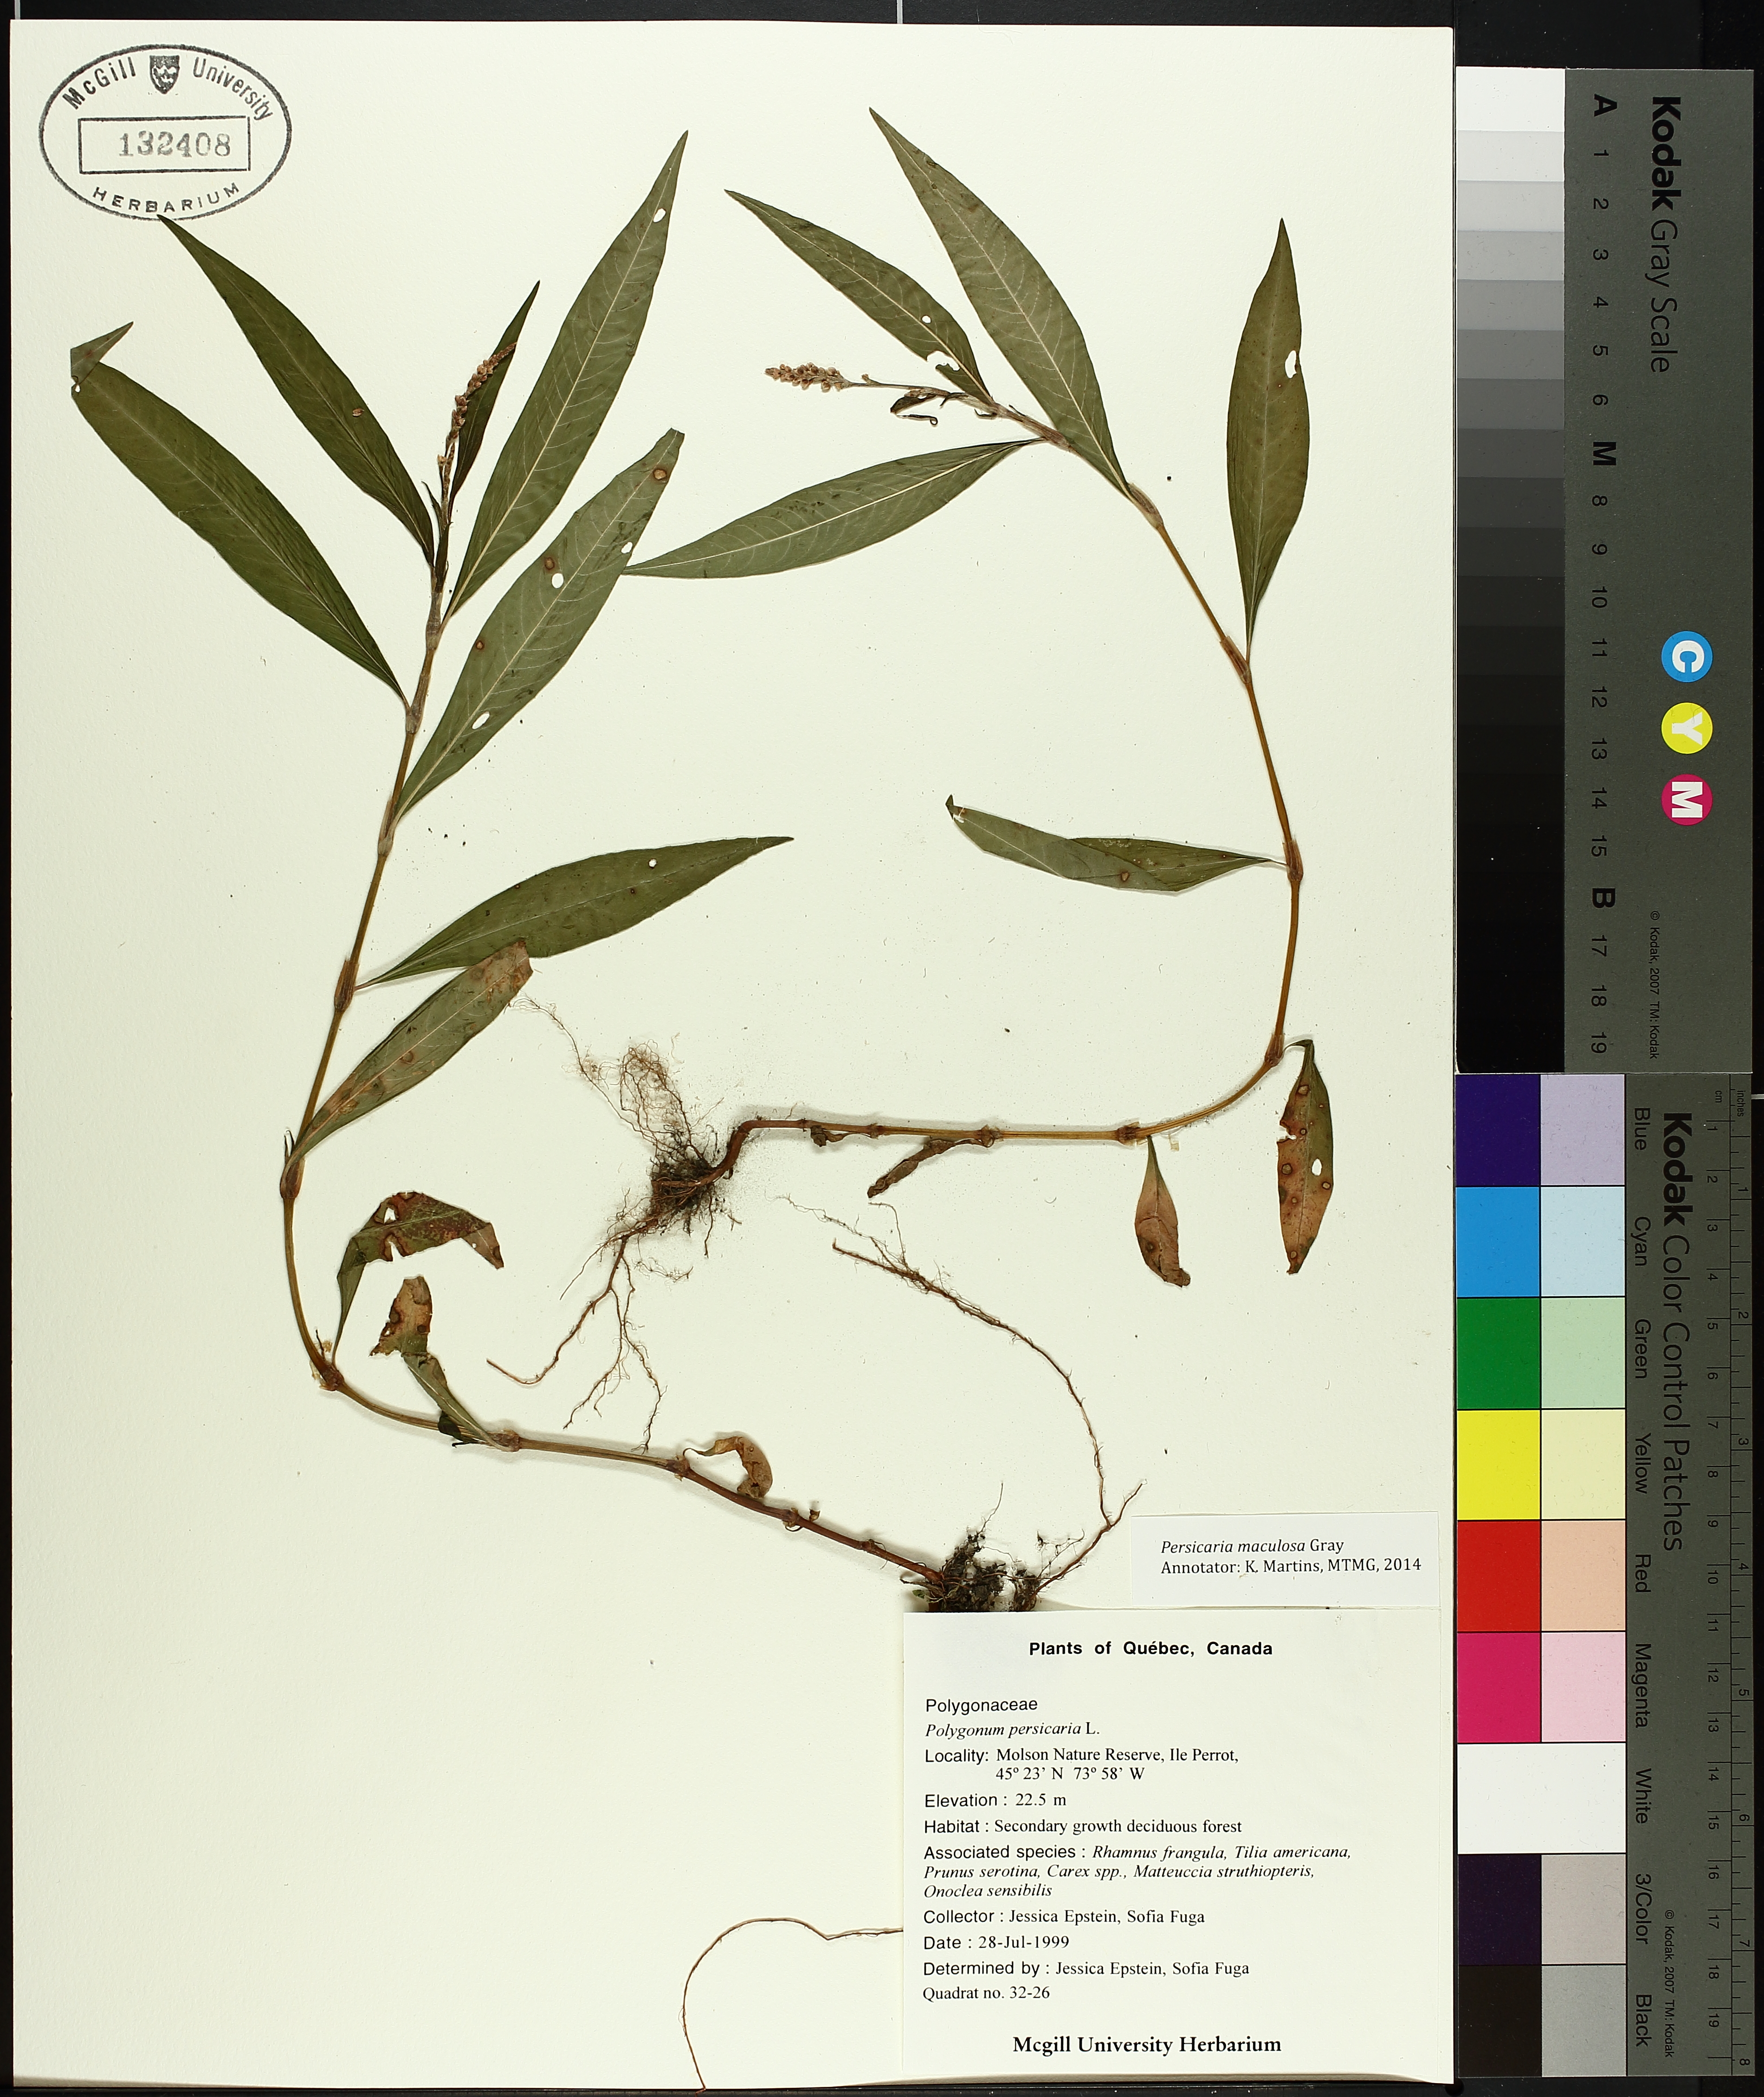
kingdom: Plantae
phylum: Tracheophyta
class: Magnoliopsida
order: Caryophyllales
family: Polygonaceae
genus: Persicaria
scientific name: Persicaria maculosa
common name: Redshank
